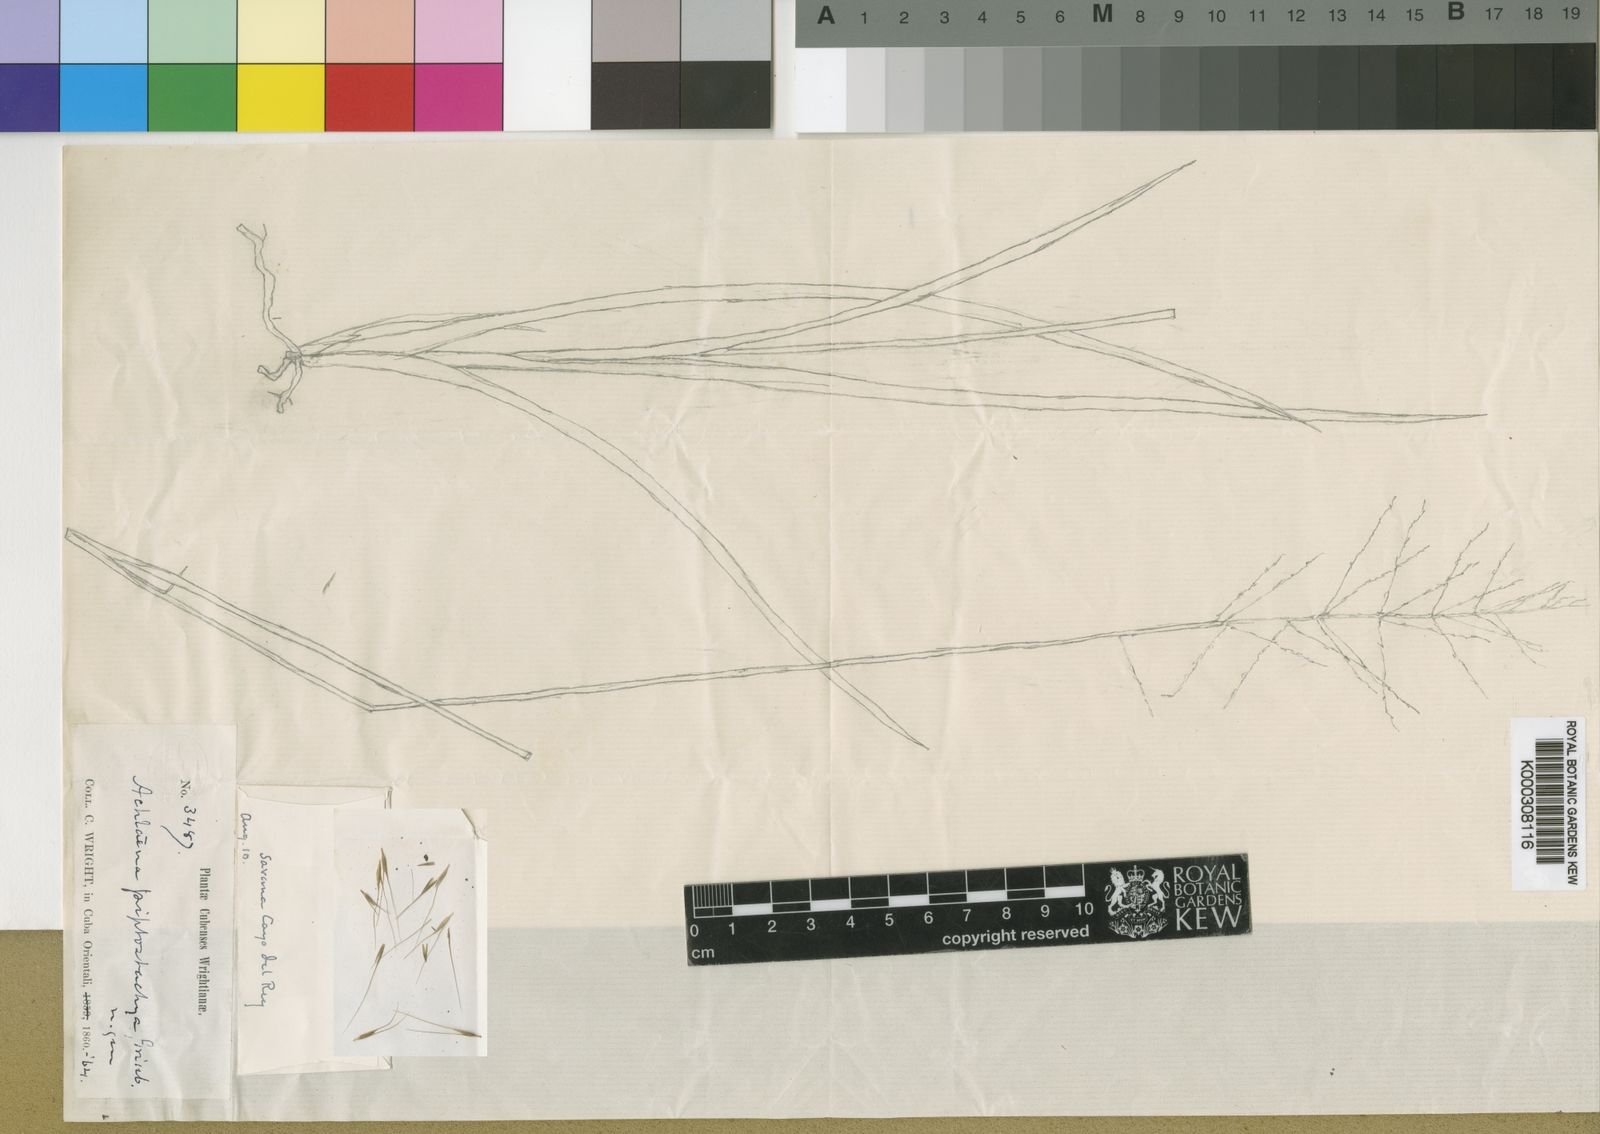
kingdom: Plantae
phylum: Tracheophyta
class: Liliopsida
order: Poales
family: Poaceae
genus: Arthropogon
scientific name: Arthropogon piptostachyus
